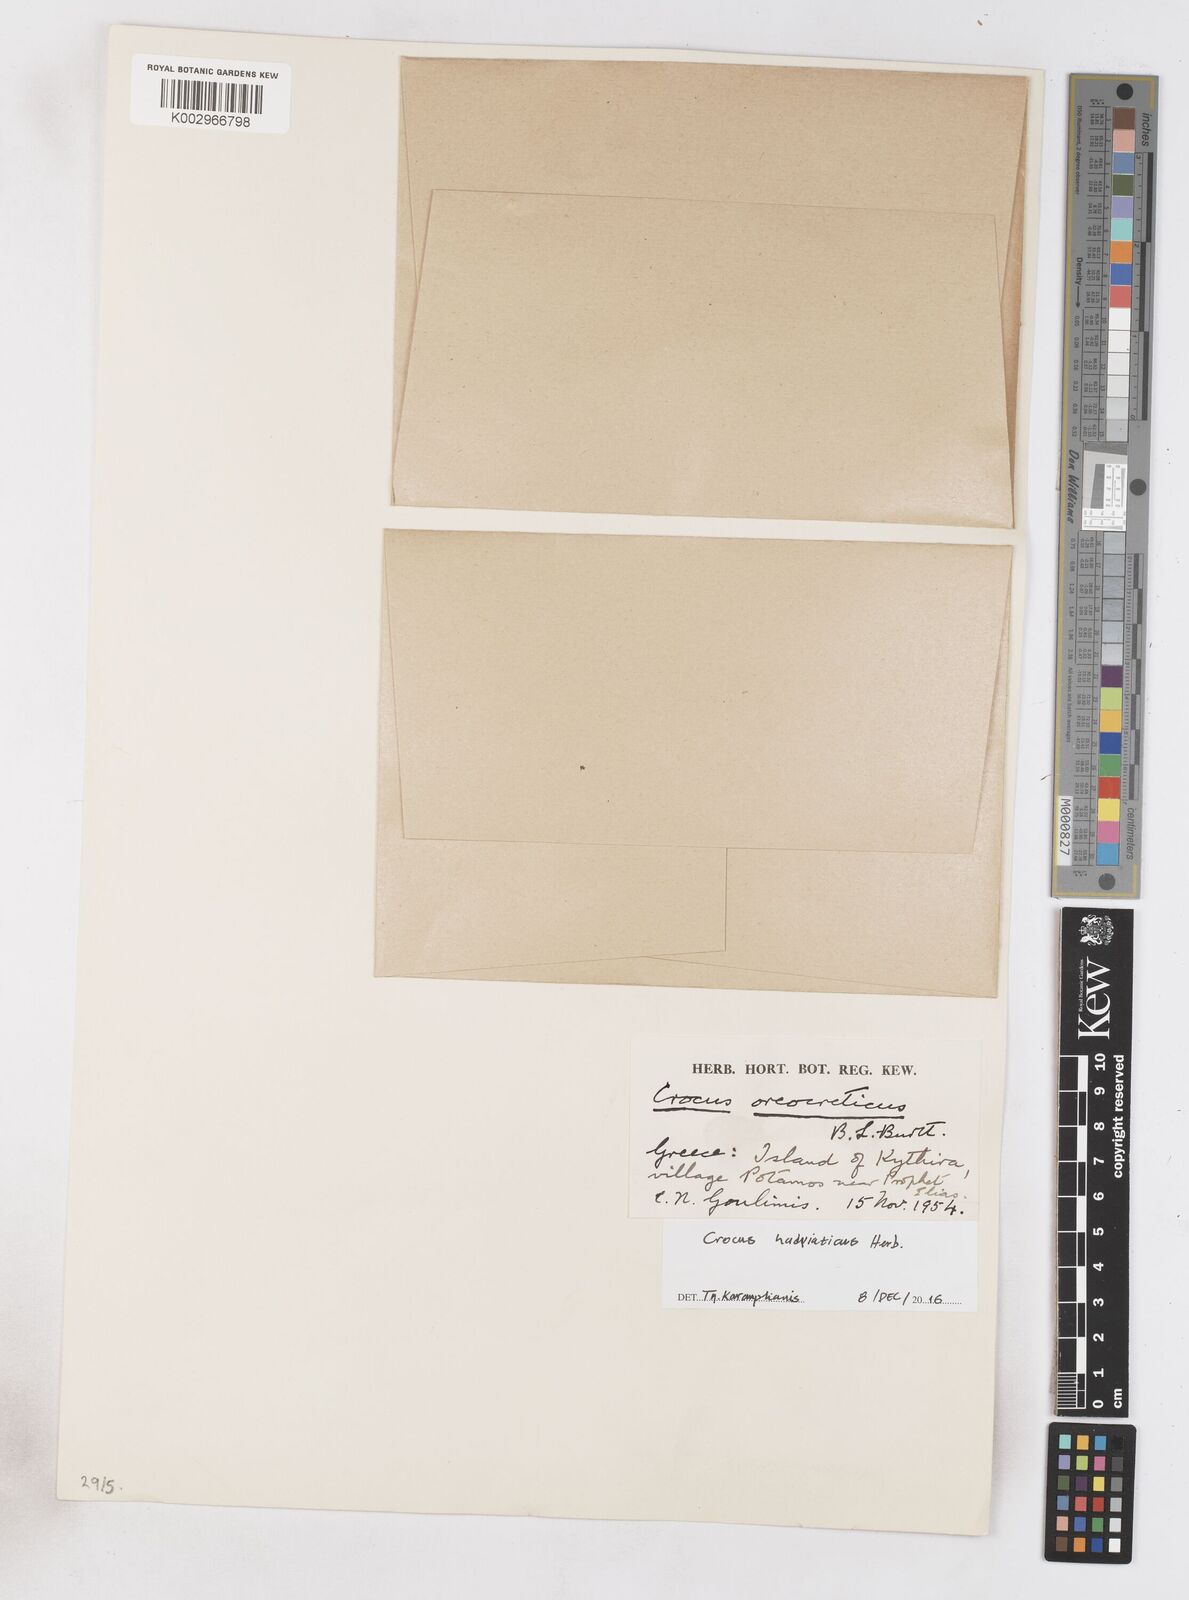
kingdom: Plantae
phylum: Tracheophyta
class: Liliopsida
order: Asparagales
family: Iridaceae
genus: Crocus
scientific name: Crocus hadriaticus
